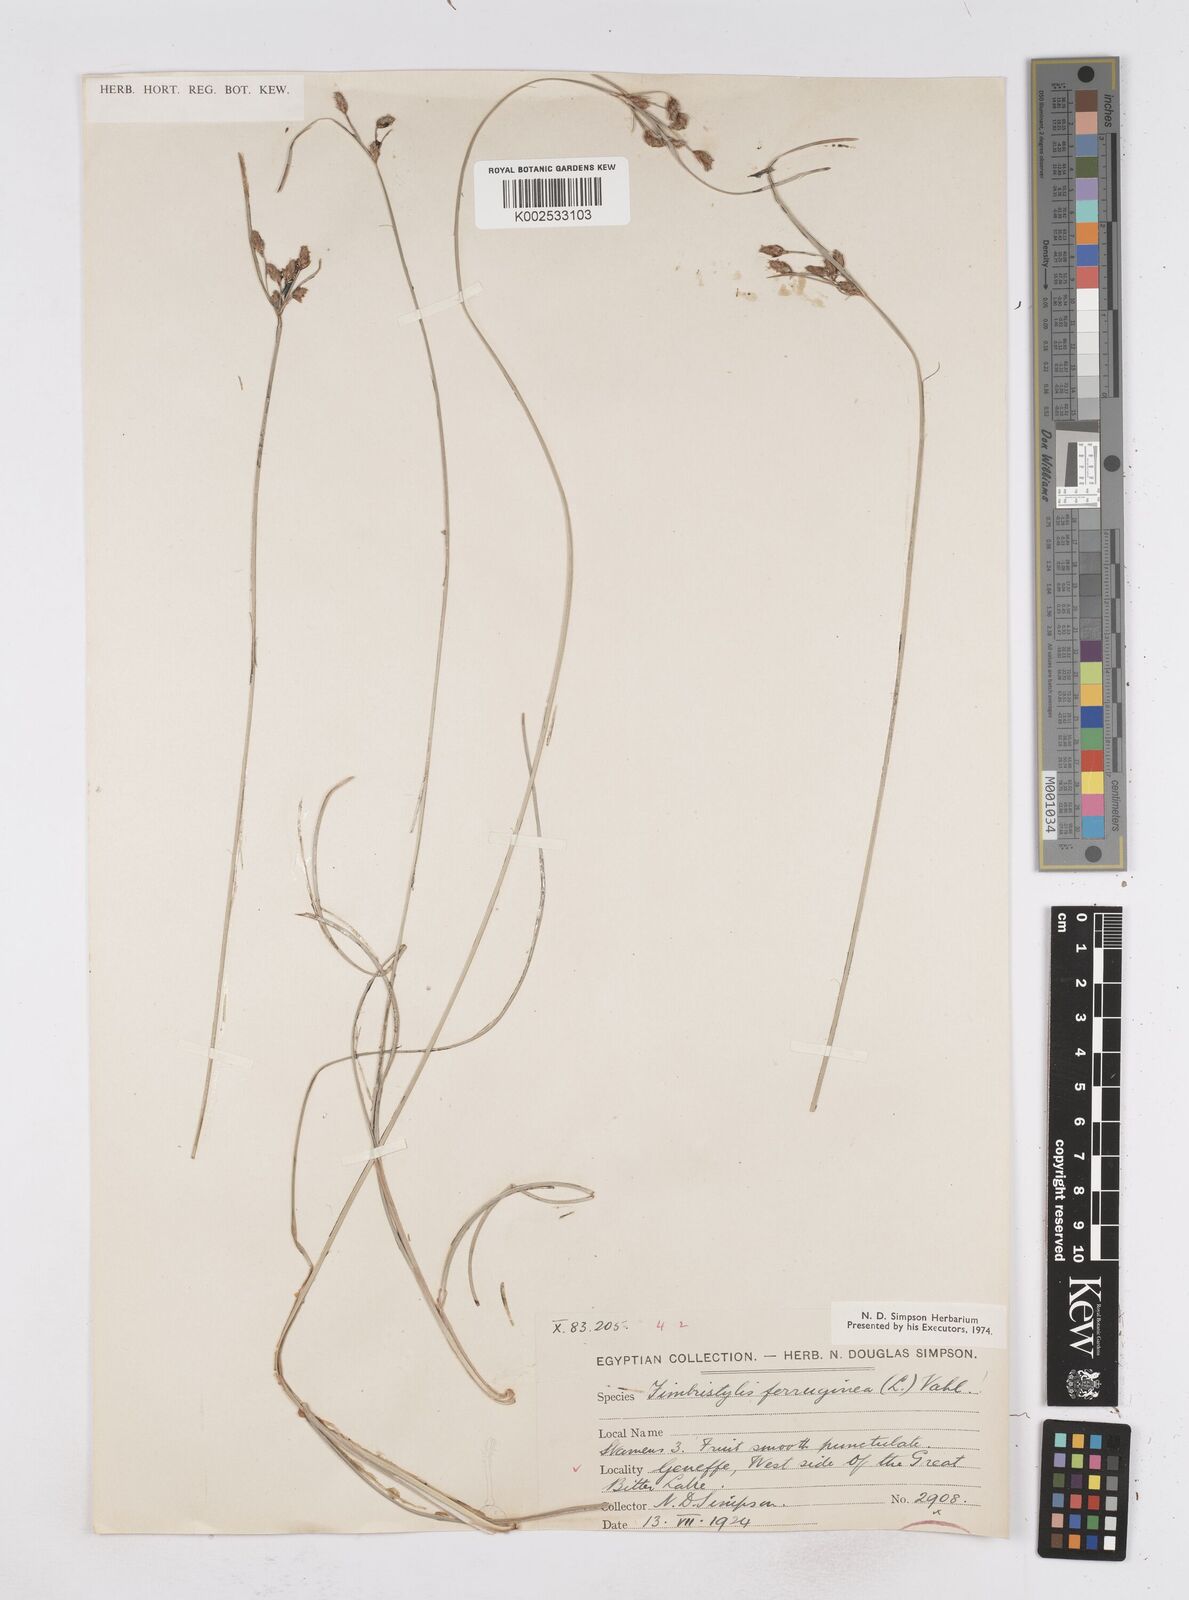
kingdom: Plantae
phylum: Tracheophyta
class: Liliopsida
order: Poales
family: Cyperaceae
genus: Fimbristylis
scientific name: Fimbristylis ferruginea
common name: West indian fimbry
